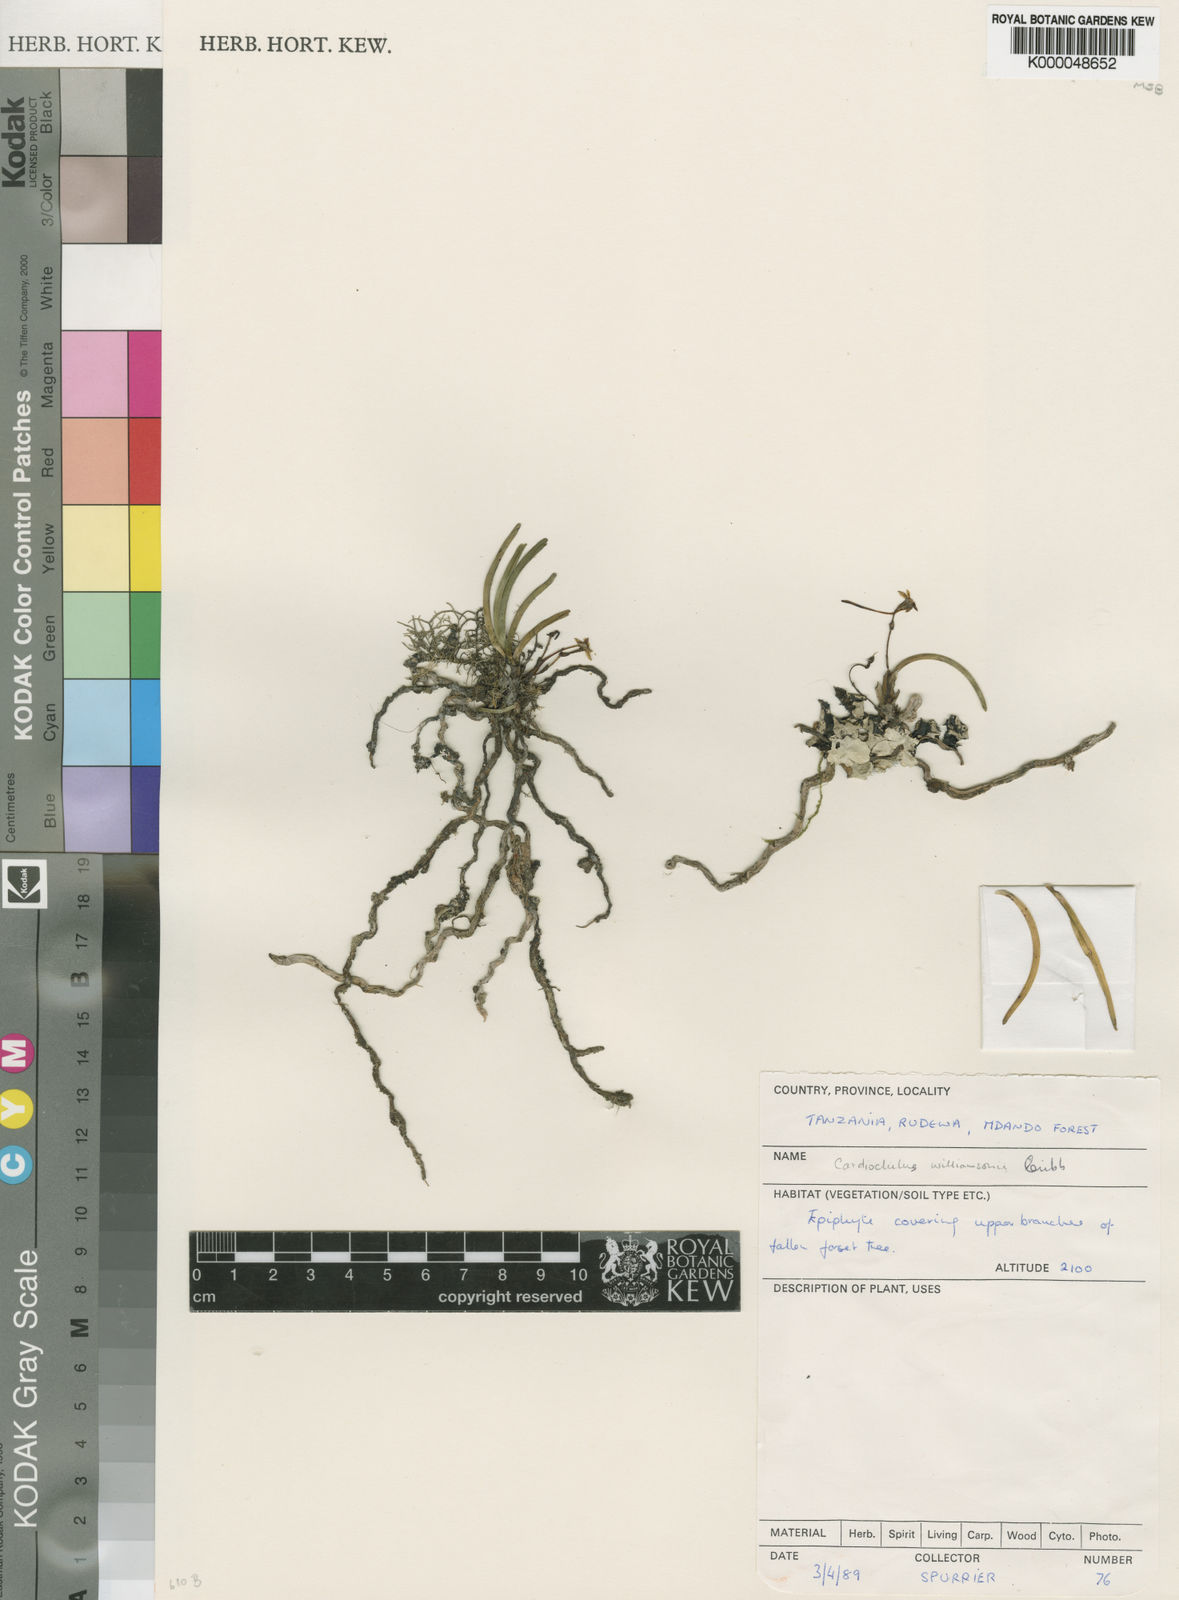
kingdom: Plantae
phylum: Tracheophyta
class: Liliopsida
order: Asparagales
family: Orchidaceae
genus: Cardiochilos
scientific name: Cardiochilos williamsonii
